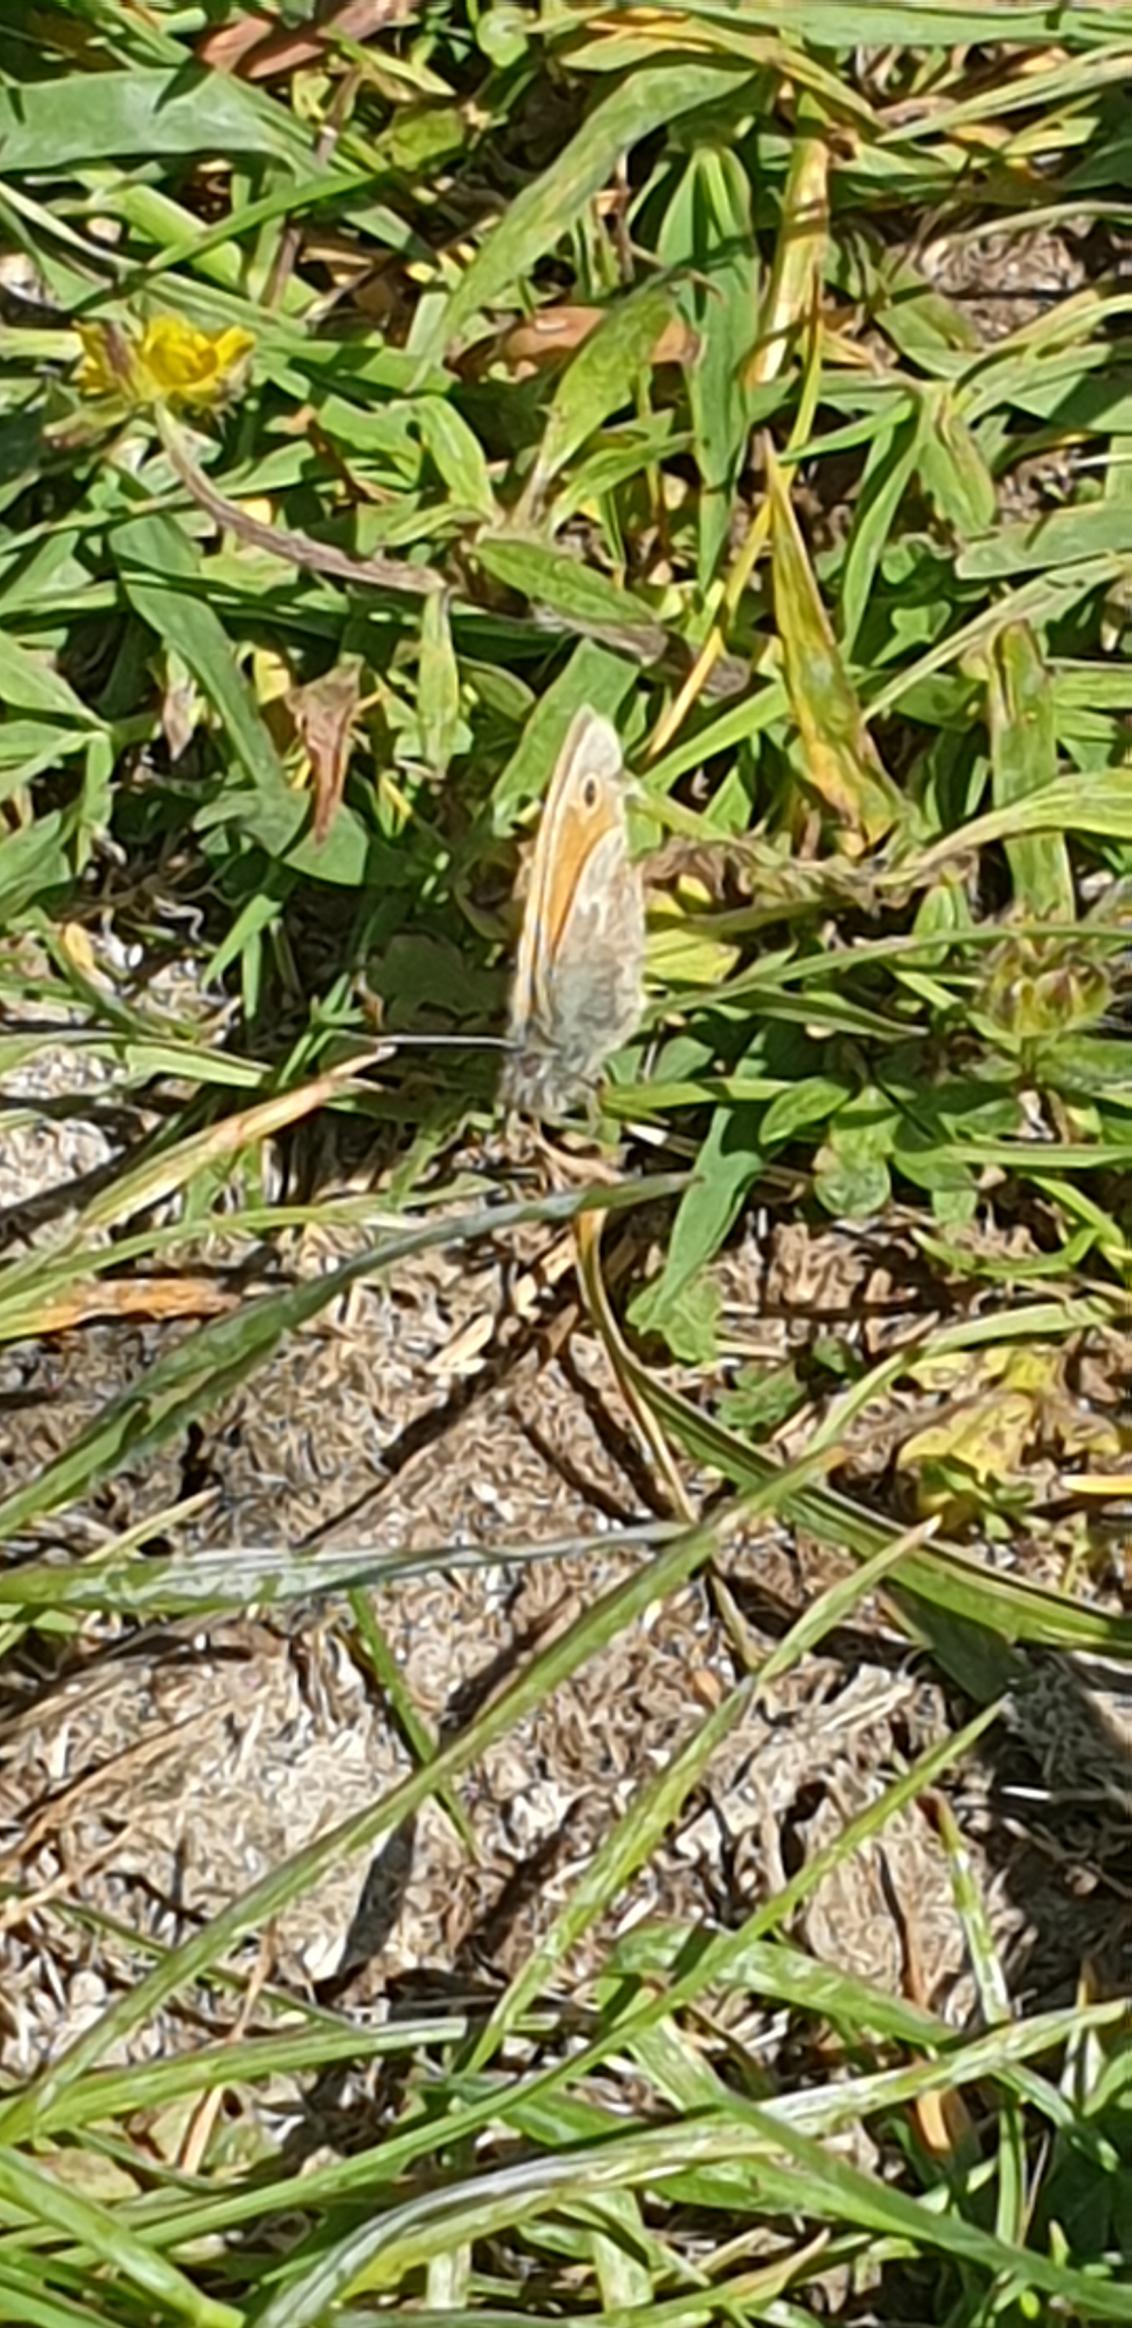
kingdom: Animalia
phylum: Arthropoda
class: Insecta
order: Lepidoptera
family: Nymphalidae
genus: Coenonympha
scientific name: Coenonympha pamphilus
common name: Okkergul randøje
